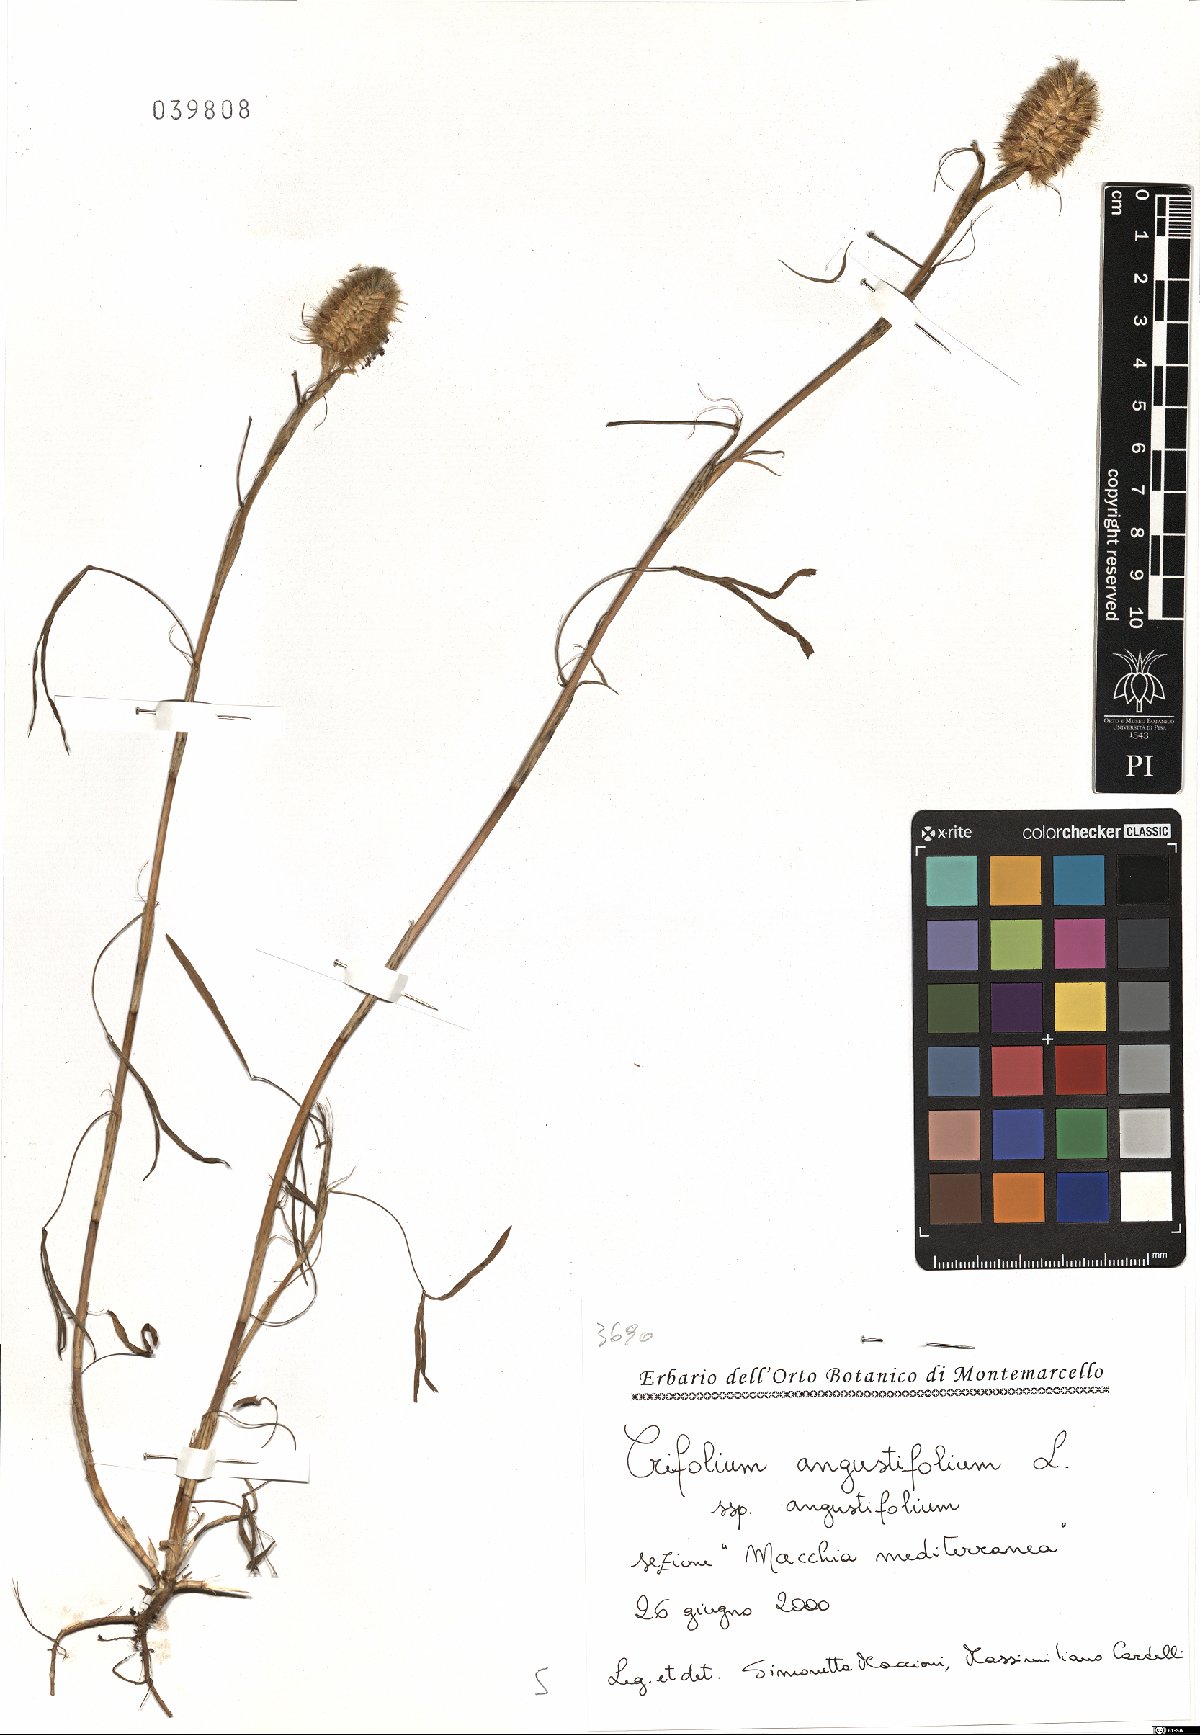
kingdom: Plantae
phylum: Tracheophyta
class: Magnoliopsida
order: Fabales
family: Fabaceae
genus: Trifolium
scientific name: Trifolium angustifolium
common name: Narrow clover
